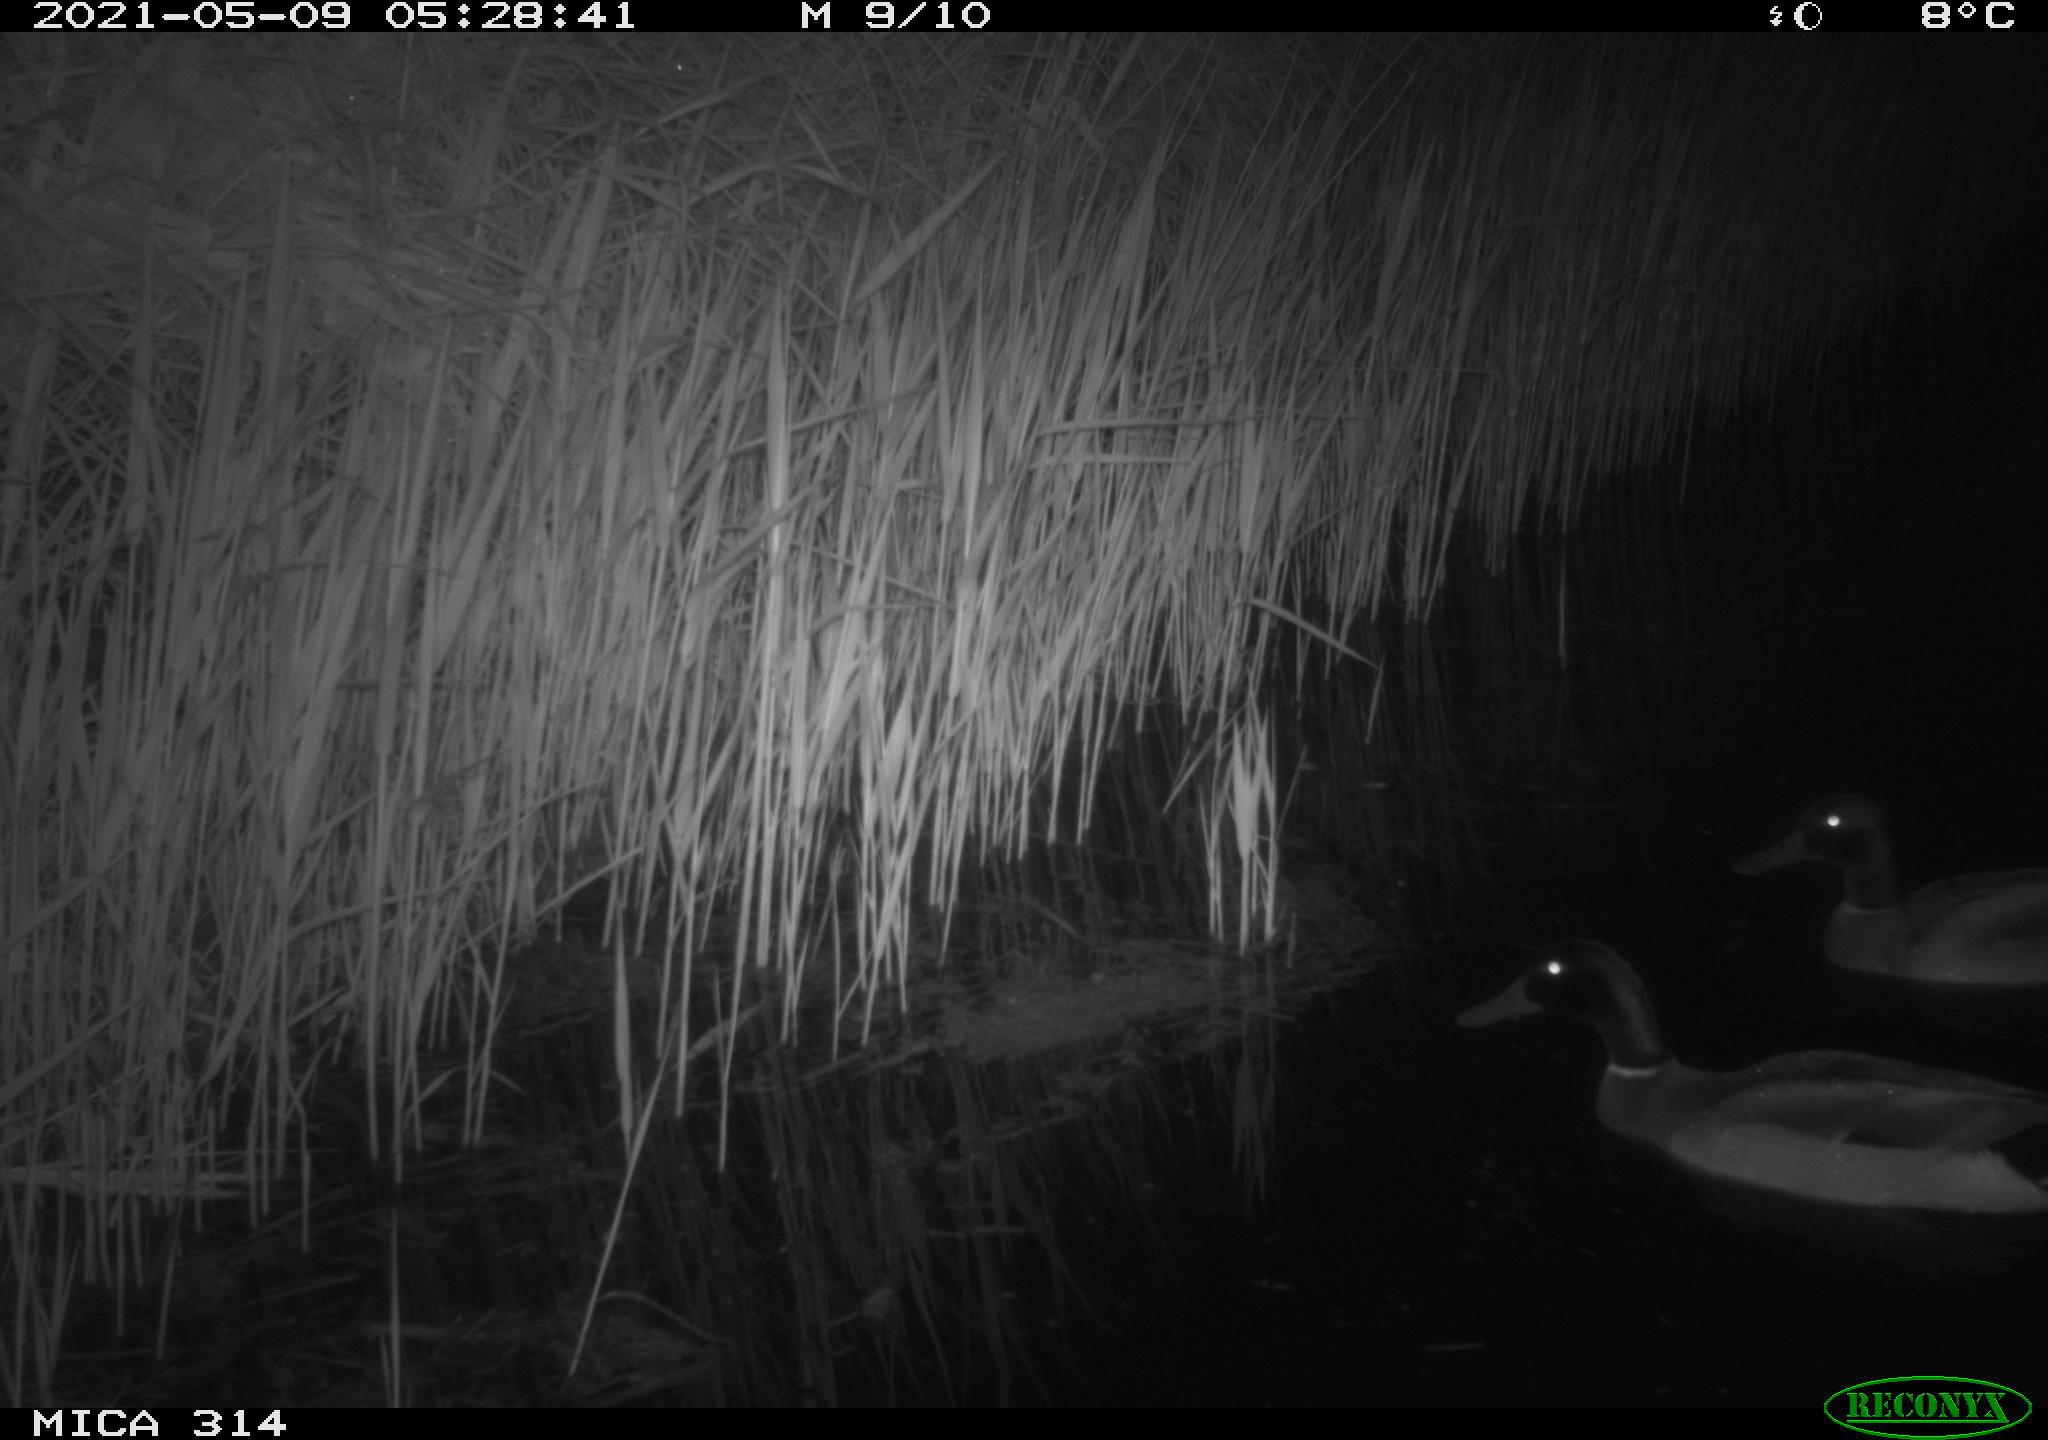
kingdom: Animalia
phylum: Chordata
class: Aves
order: Anseriformes
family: Anatidae
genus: Anas
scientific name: Anas platyrhynchos
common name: Mallard
